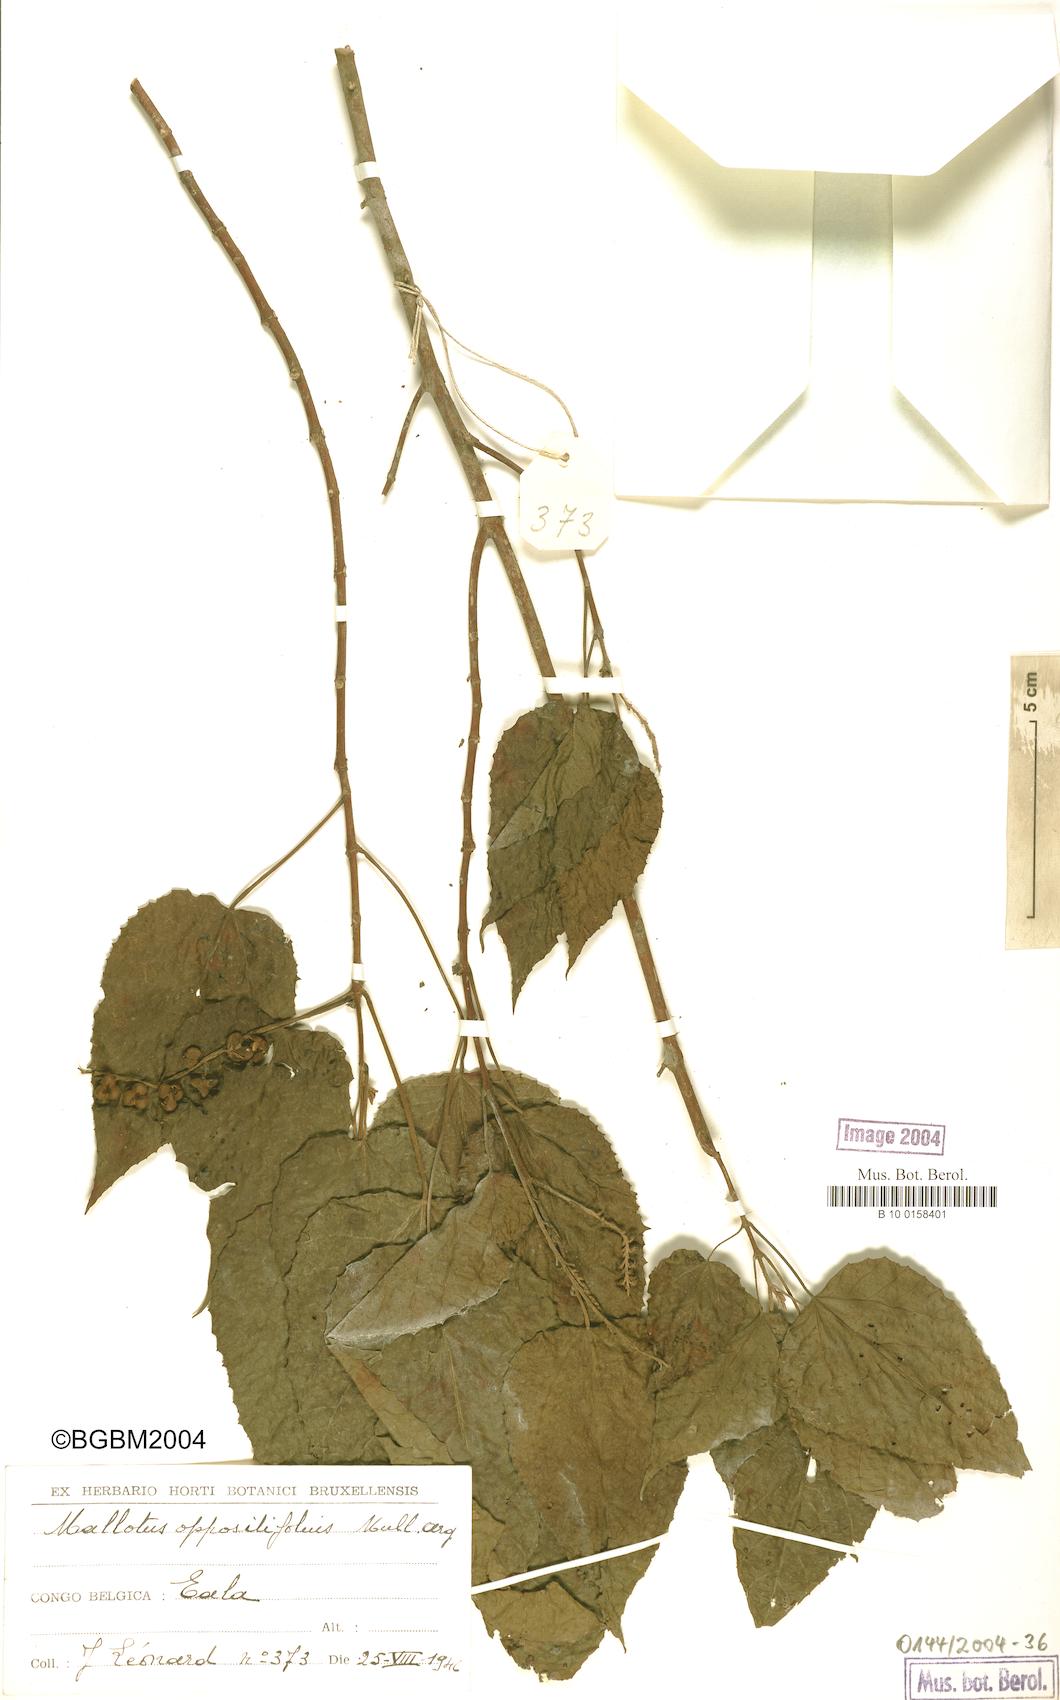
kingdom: Plantae
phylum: Tracheophyta
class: Magnoliopsida
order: Malpighiales
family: Euphorbiaceae
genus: Mallotus
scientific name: Mallotus oppositifolius
